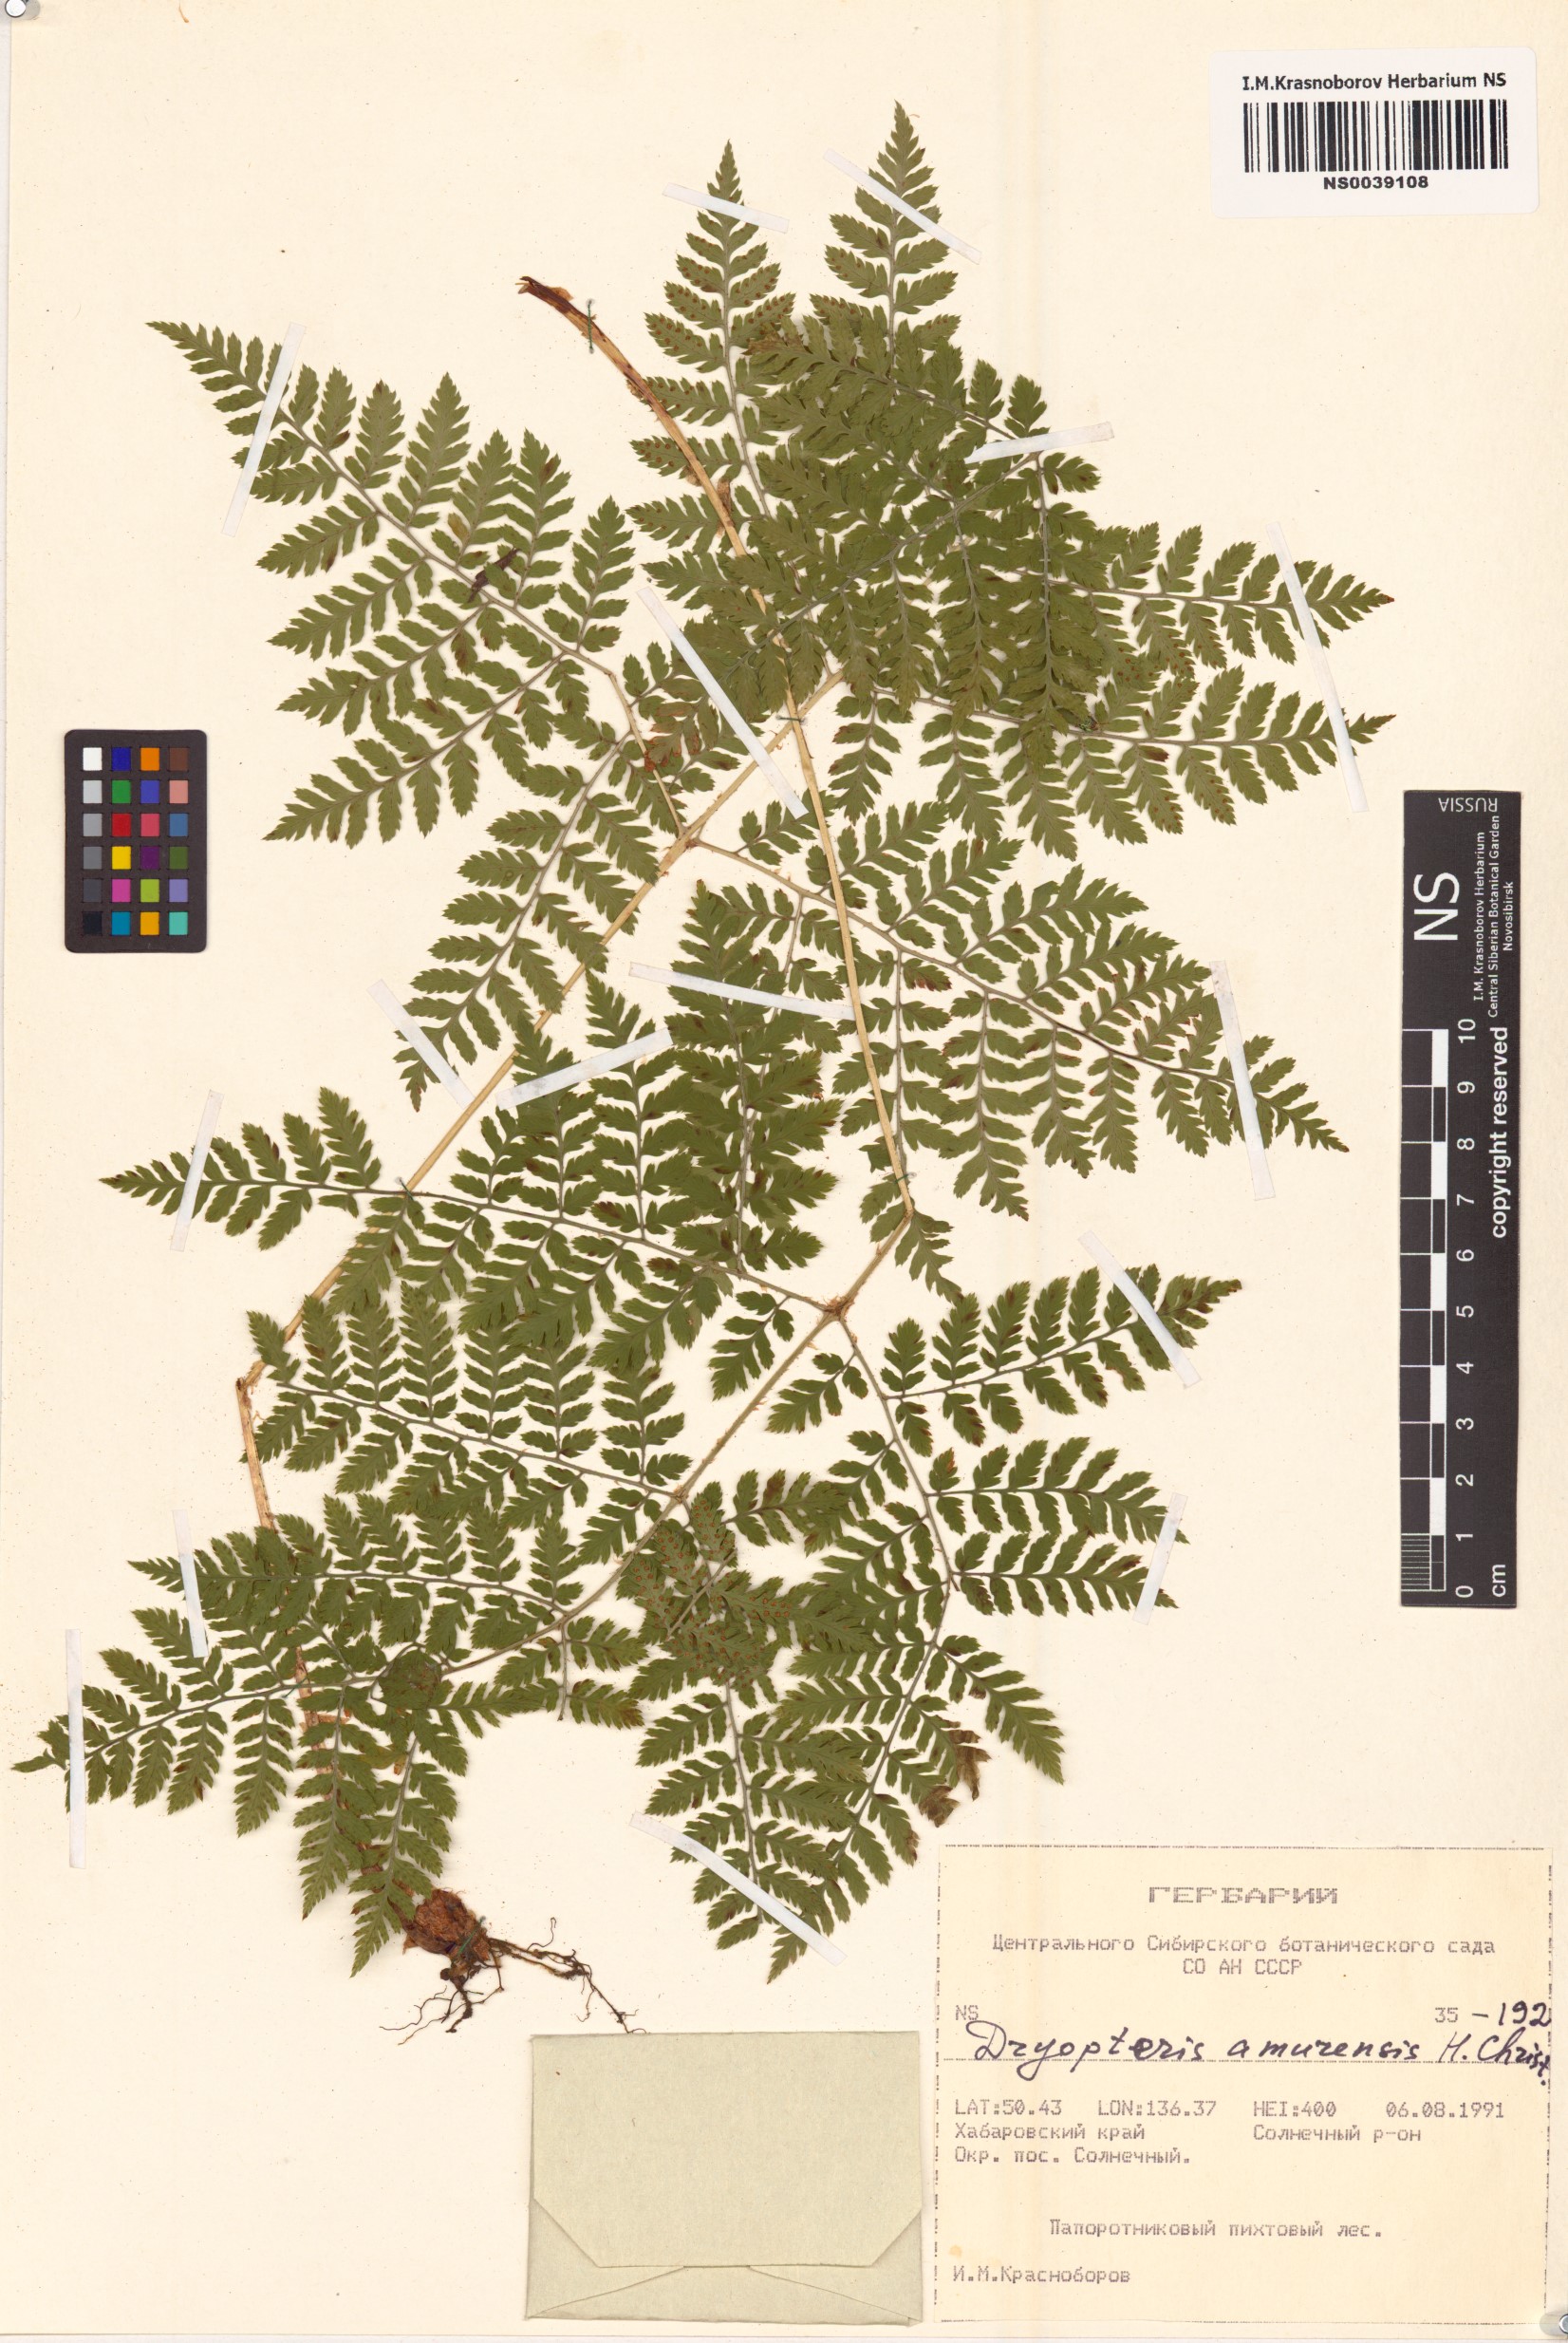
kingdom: Plantae
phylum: Tracheophyta
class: Polypodiopsida
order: Polypodiales
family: Dryopteridaceae
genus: Dryopteris
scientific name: Dryopteris amurensis
